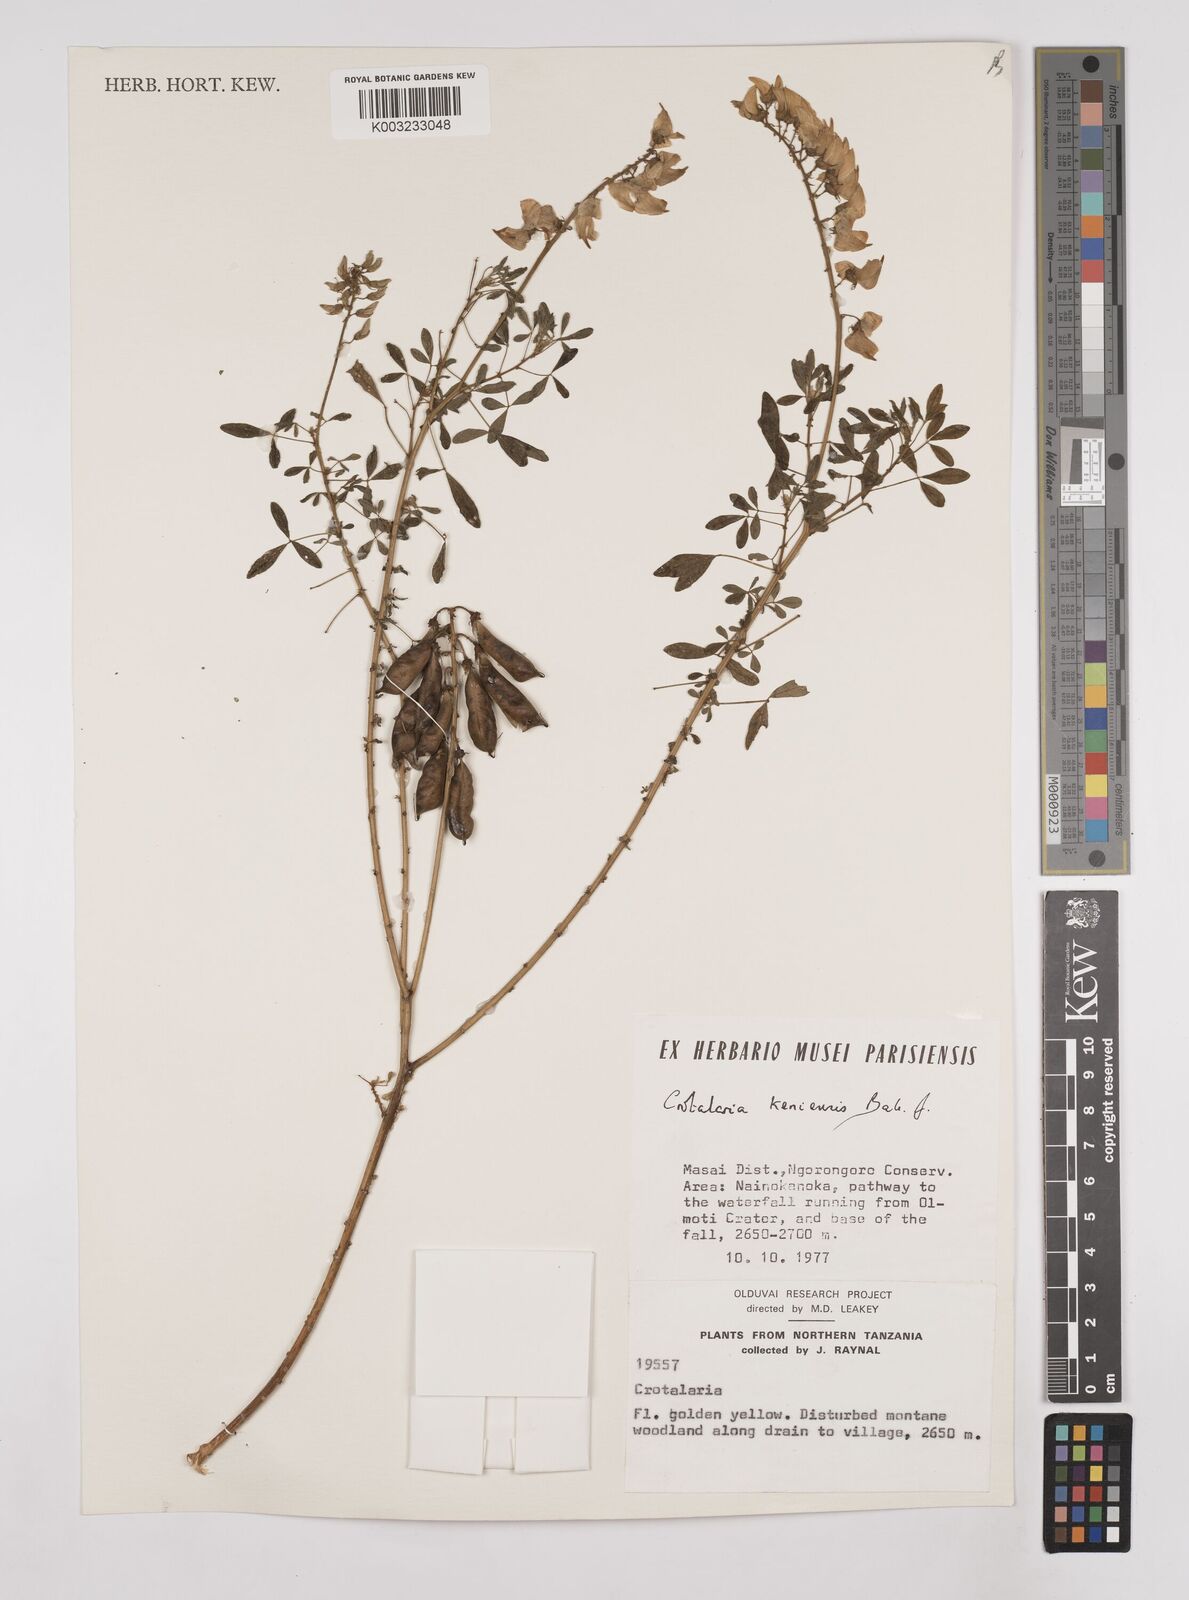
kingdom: Plantae
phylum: Tracheophyta
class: Magnoliopsida
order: Fabales
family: Fabaceae
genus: Crotalaria
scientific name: Crotalaria keniensis
